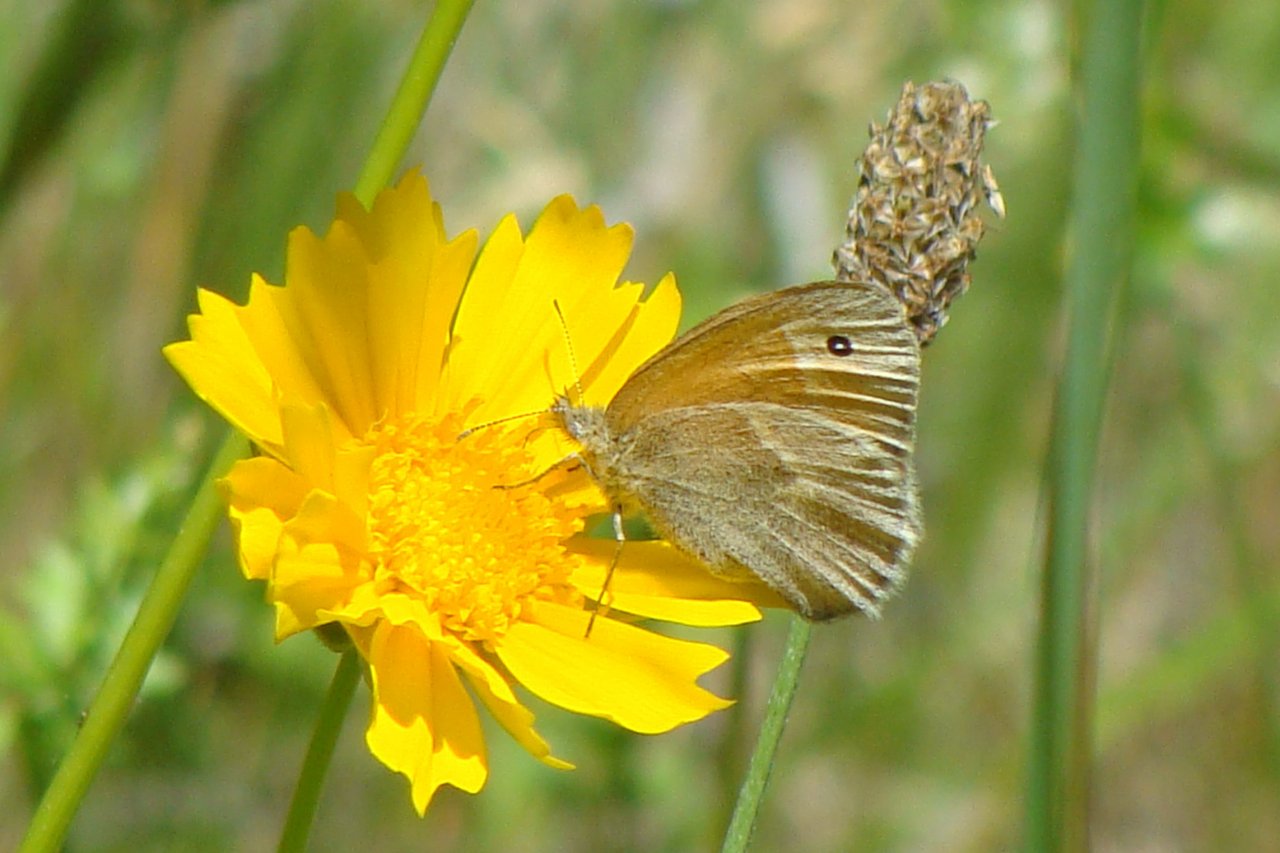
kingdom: Animalia
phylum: Arthropoda
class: Insecta
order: Lepidoptera
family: Nymphalidae
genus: Coenonympha
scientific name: Coenonympha tullia
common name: Large Heath
